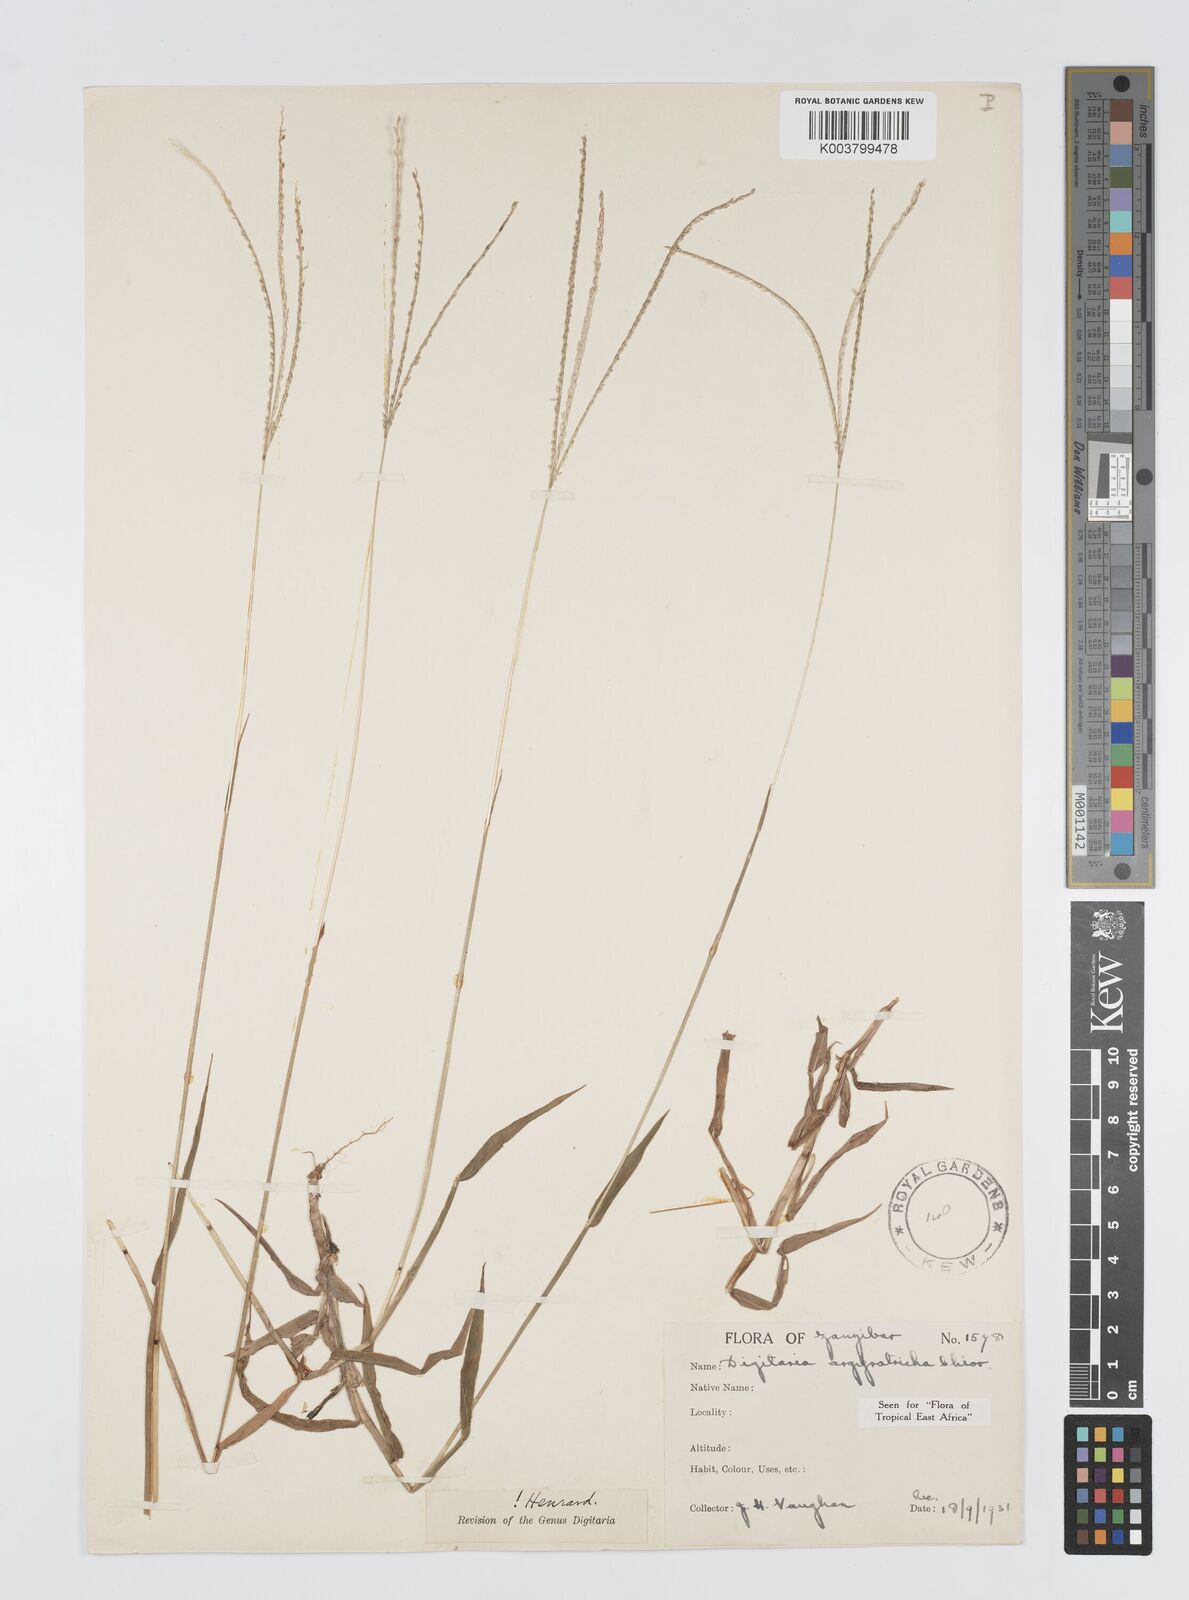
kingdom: Plantae
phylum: Tracheophyta
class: Liliopsida
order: Poales
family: Poaceae
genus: Digitaria
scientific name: Digitaria argyrotricha
